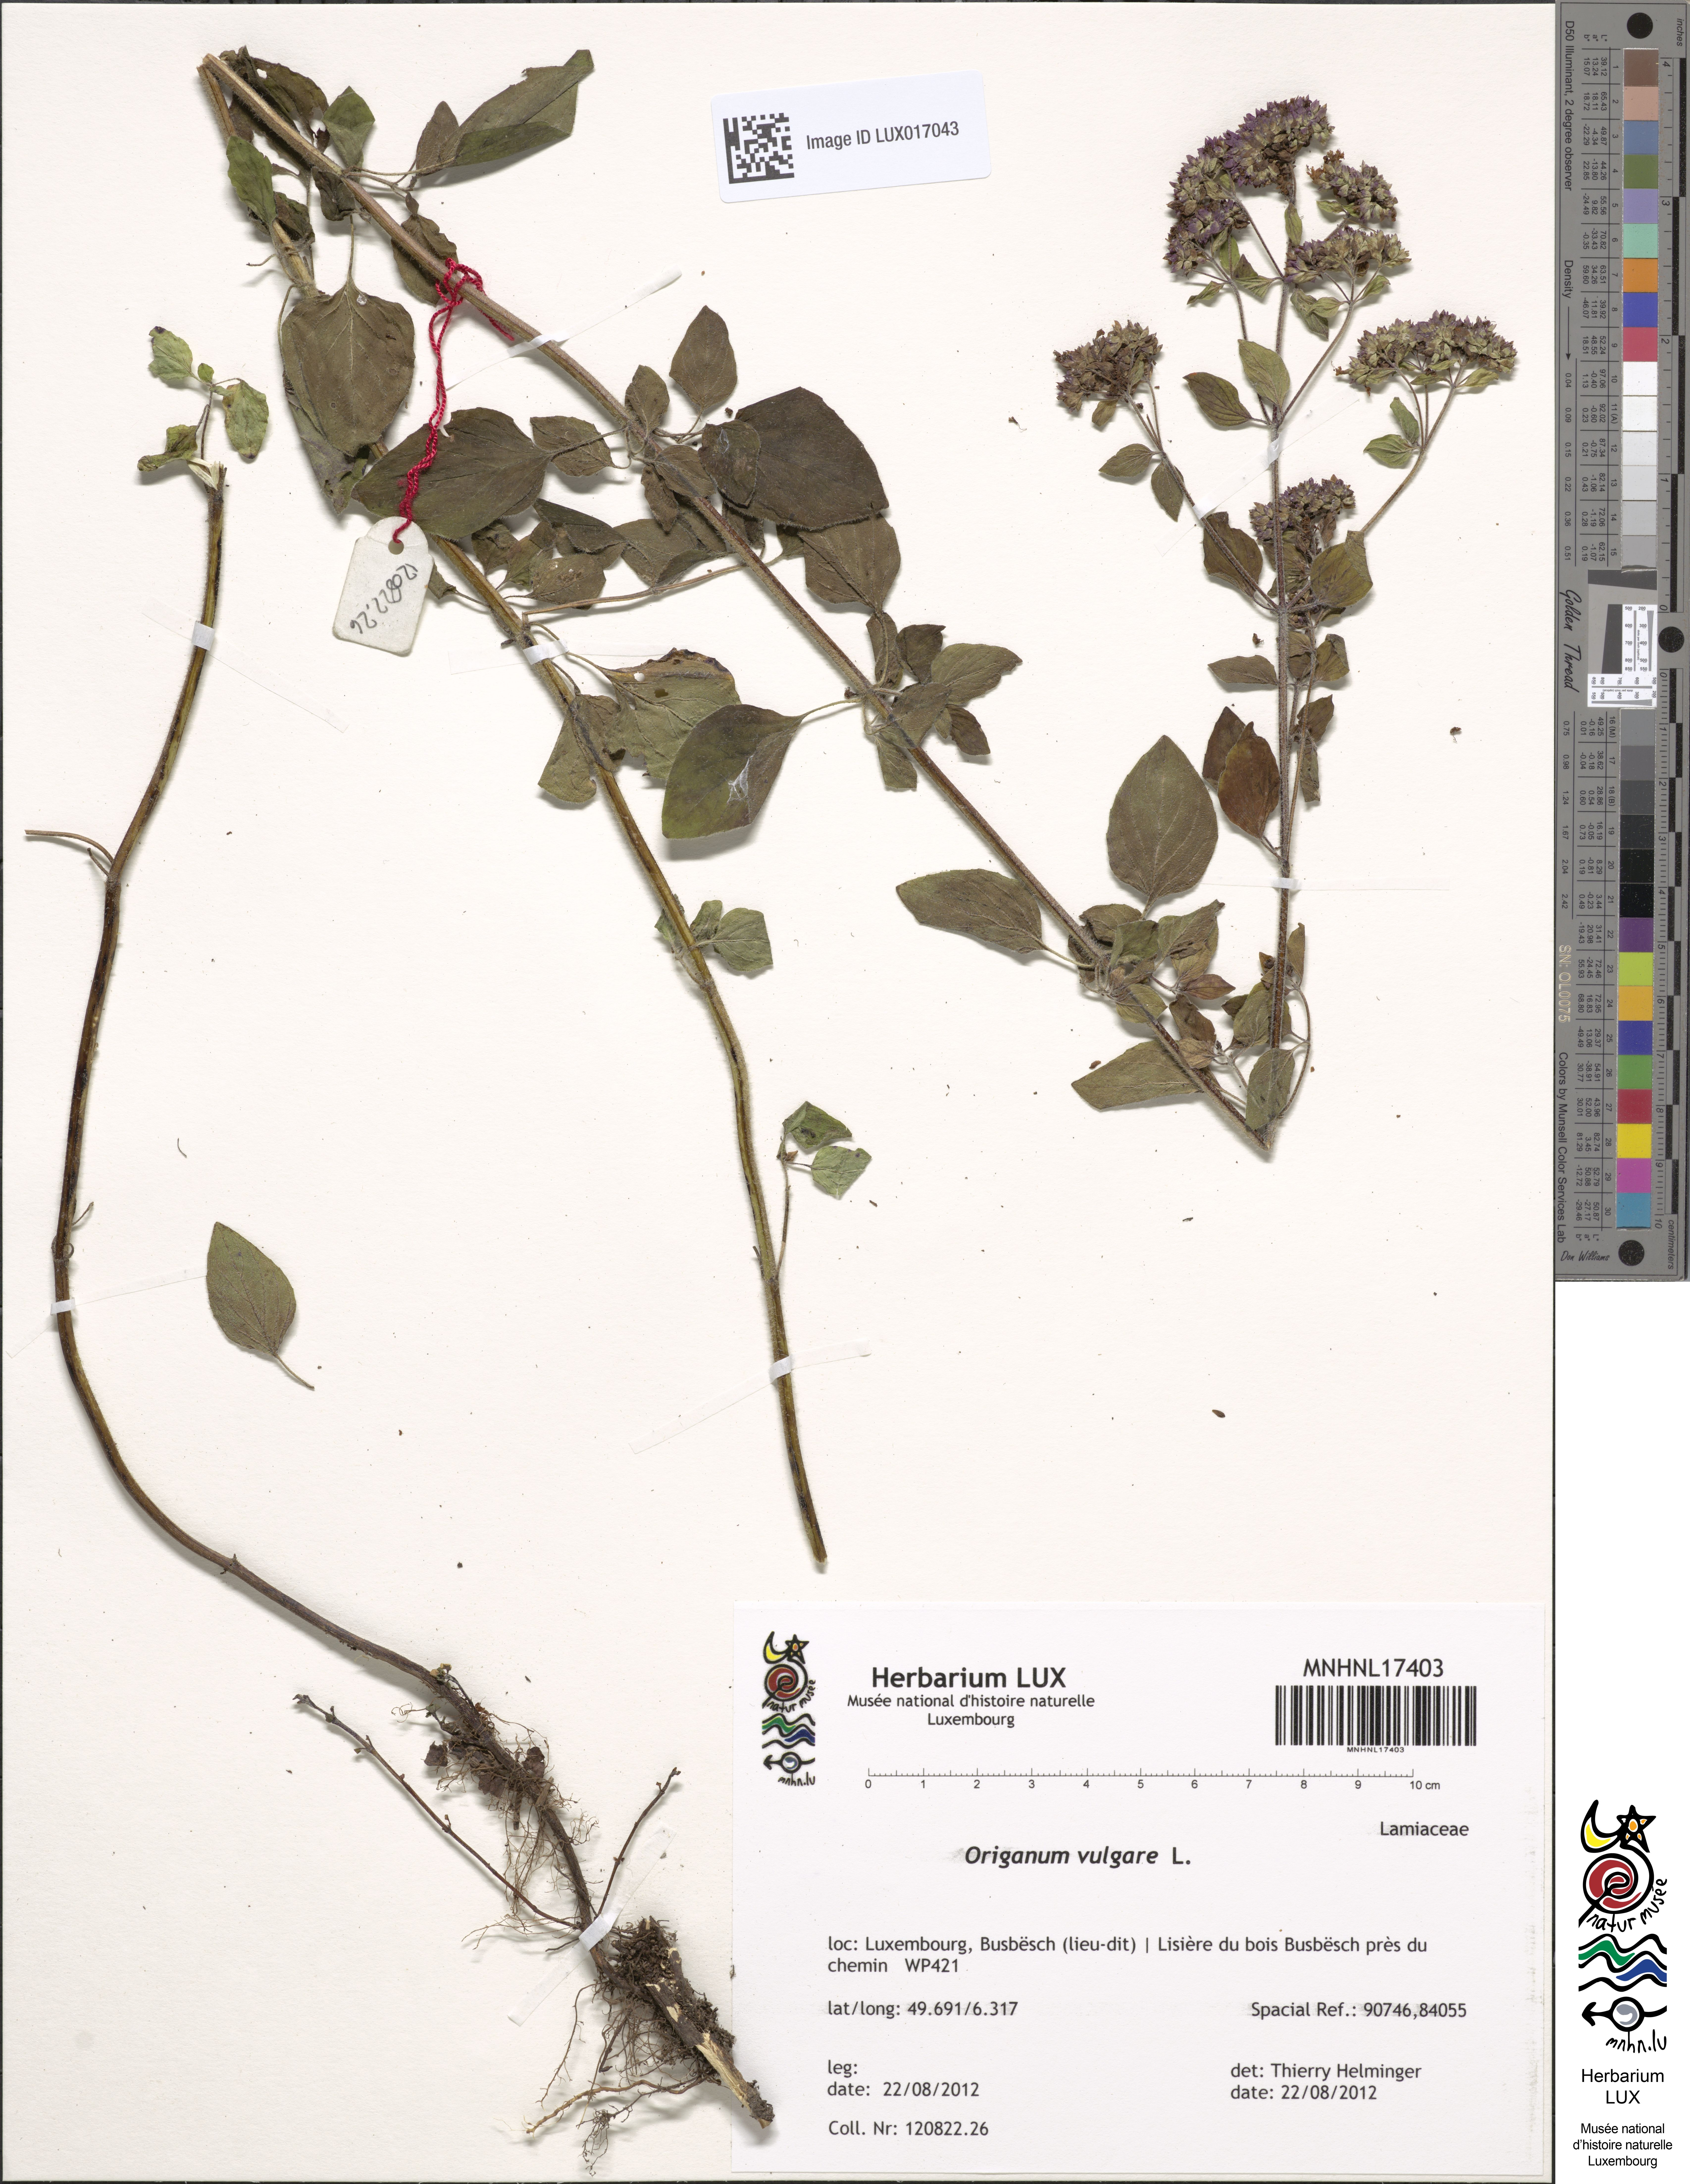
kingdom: Plantae
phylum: Tracheophyta
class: Magnoliopsida
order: Lamiales
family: Lamiaceae
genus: Origanum
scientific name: Origanum vulgare
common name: Wild marjoram
